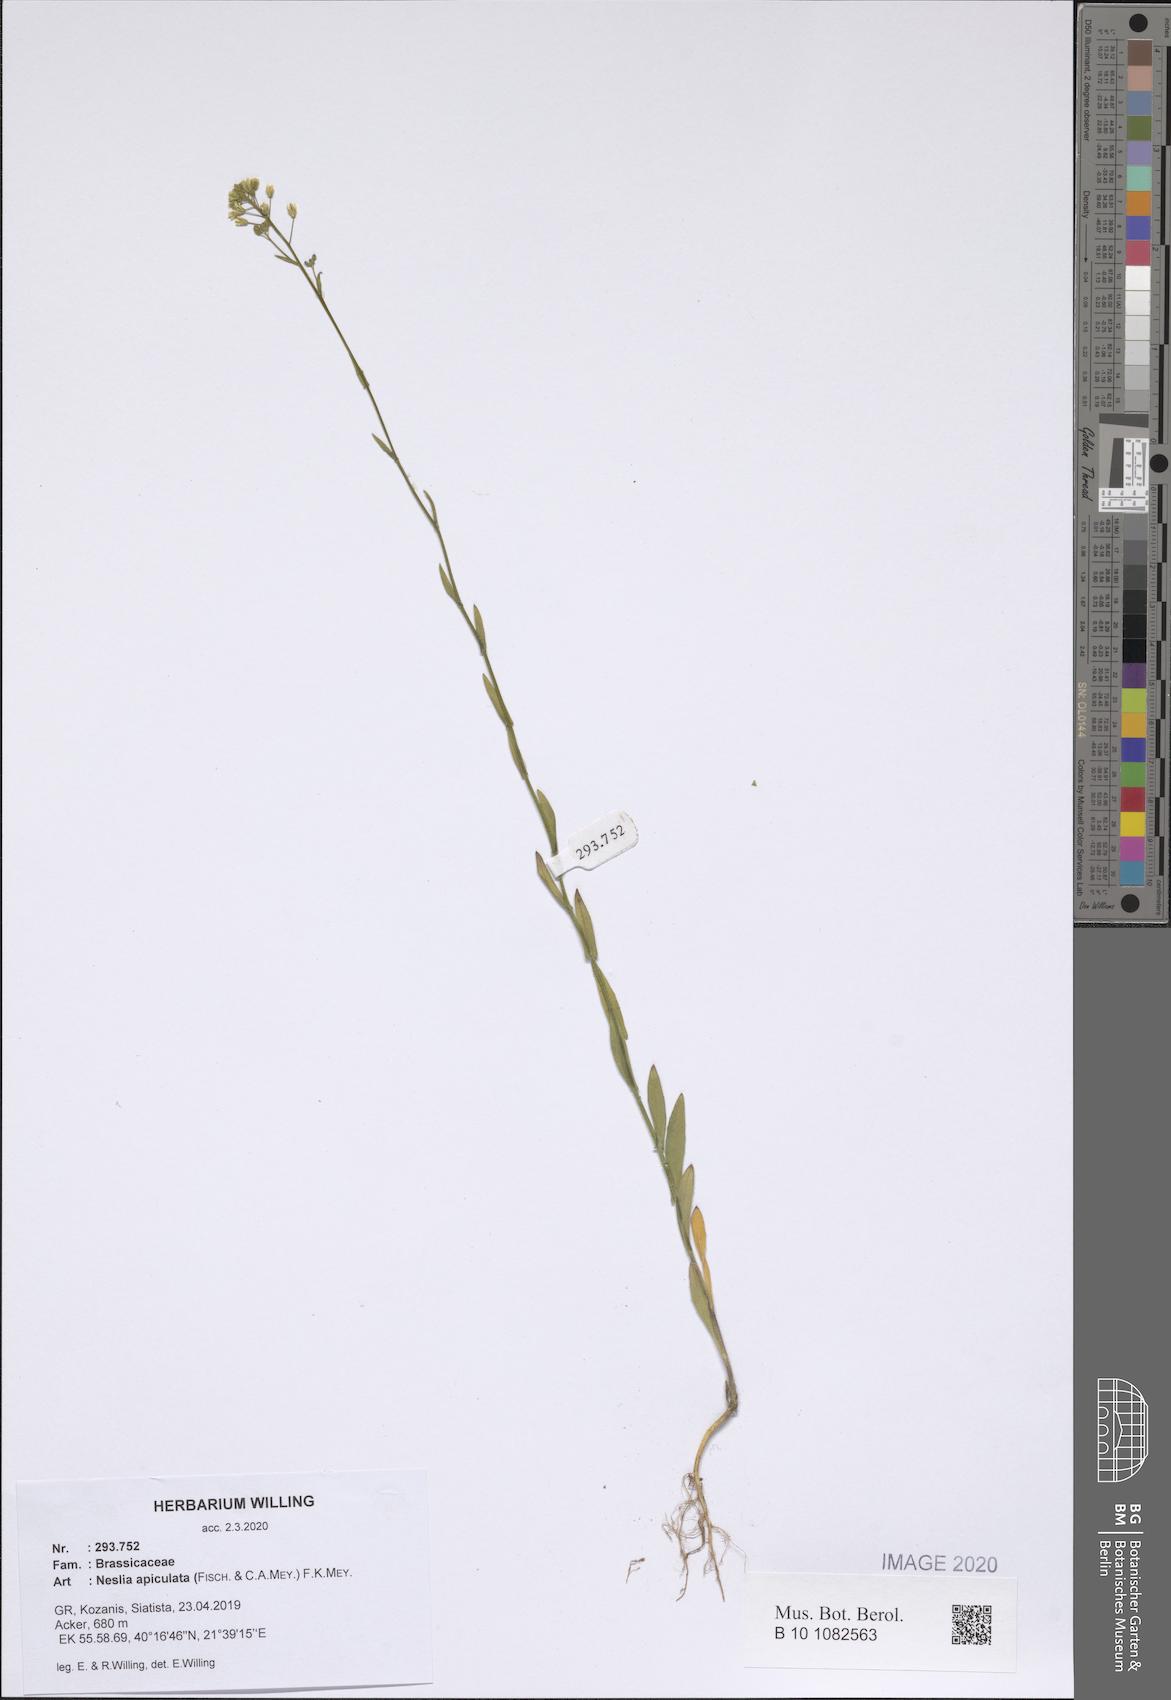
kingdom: Plantae
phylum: Tracheophyta
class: Magnoliopsida
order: Brassicales
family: Brassicaceae
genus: Neslia
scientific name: Neslia paniculata
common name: Ball mustard
